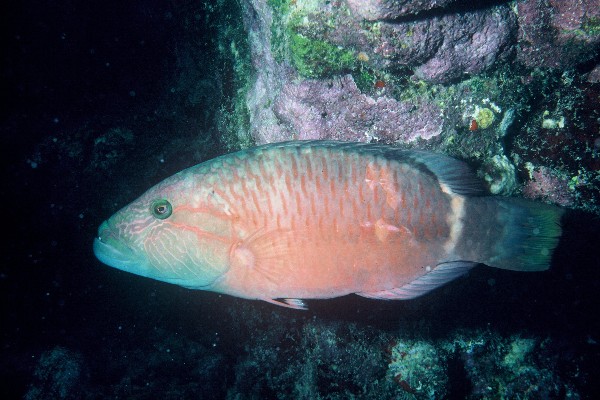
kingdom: Animalia
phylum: Chordata
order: Perciformes
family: Labridae
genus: Oxycheilinus
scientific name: Oxycheilinus unifasciatus
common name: Ringtail maori wrasse
